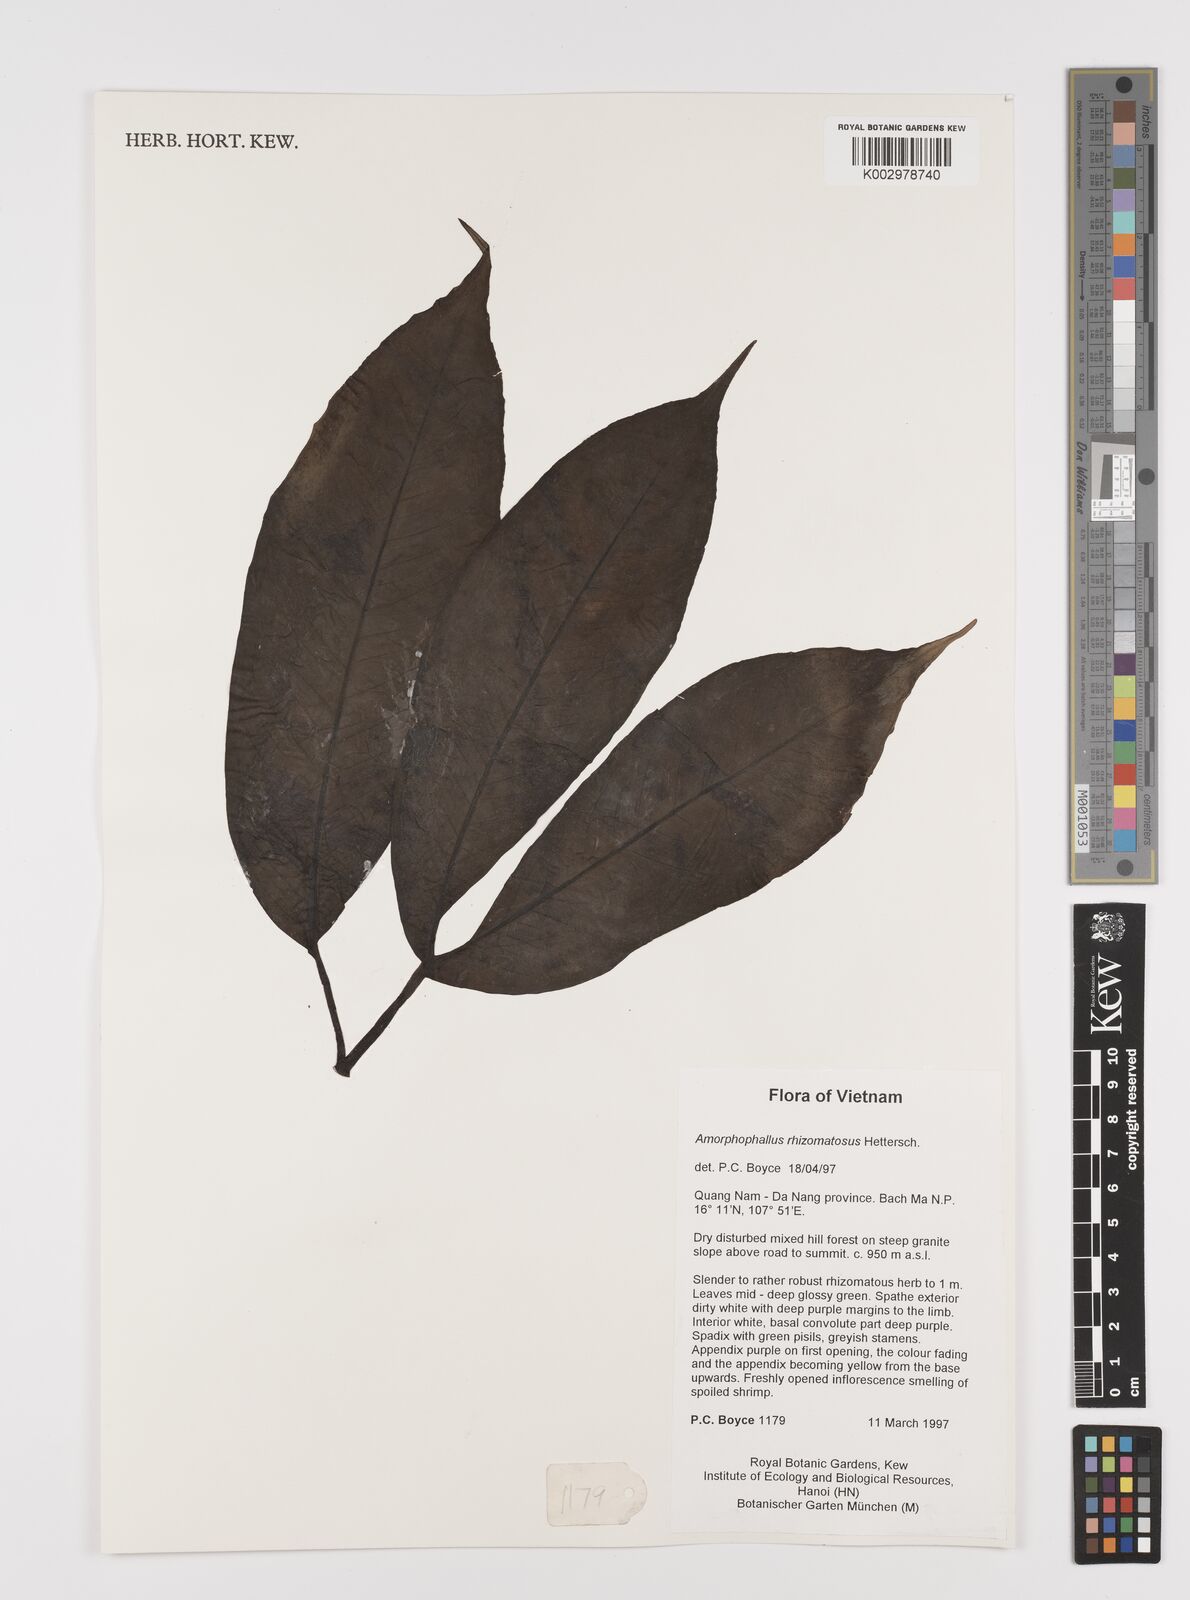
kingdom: Plantae
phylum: Tracheophyta
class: Liliopsida
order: Alismatales
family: Araceae
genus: Amorphophallus
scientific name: Amorphophallus rhizomatosus
